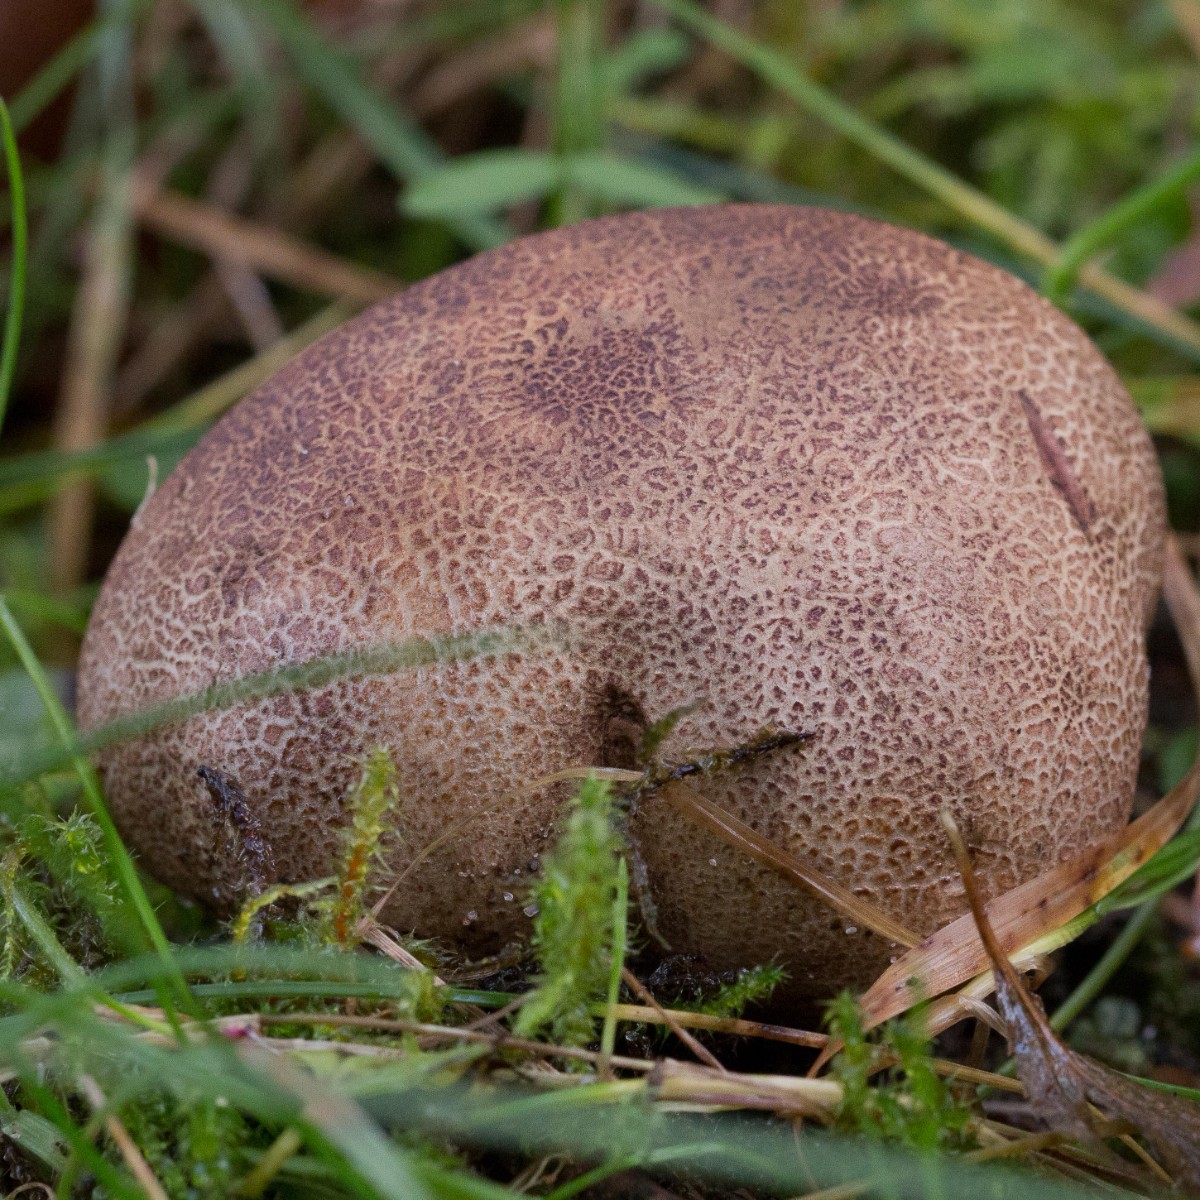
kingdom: Fungi
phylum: Basidiomycota
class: Agaricomycetes
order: Boletales
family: Sclerodermataceae
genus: Scleroderma
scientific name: Scleroderma verrucosum
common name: stilket bruskbold
